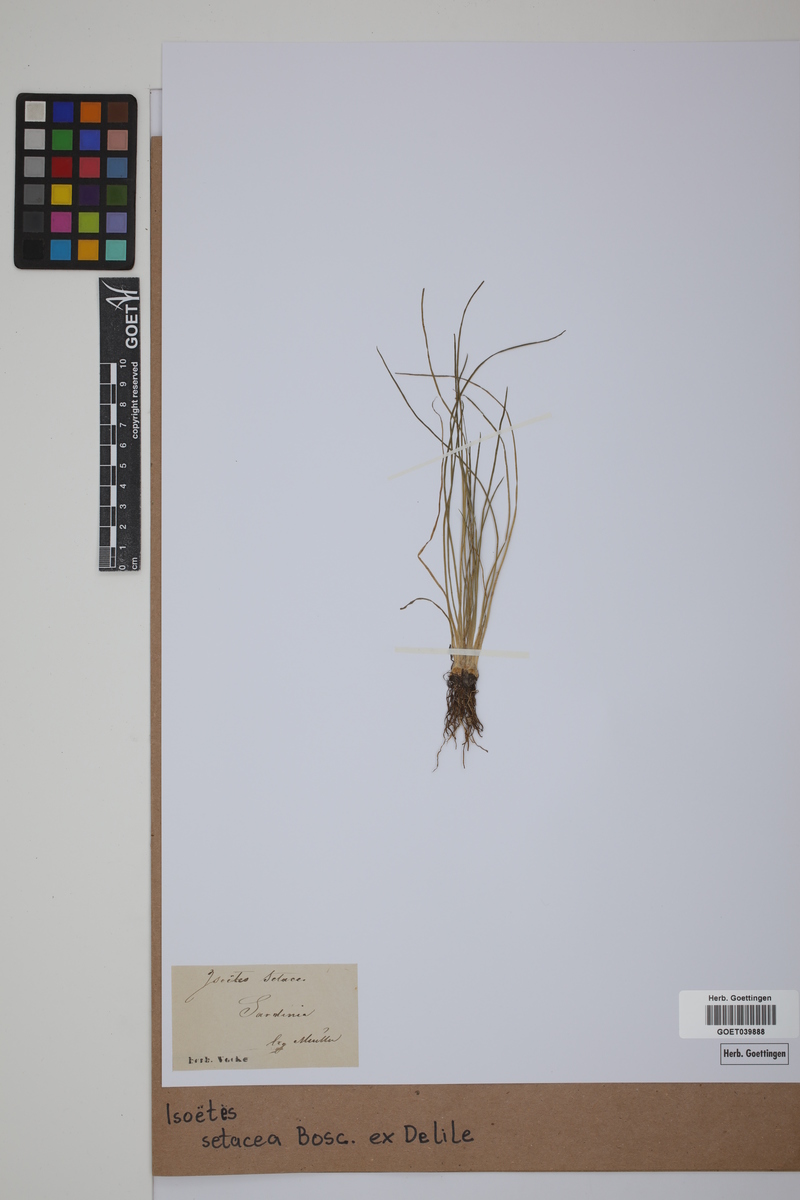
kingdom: Plantae
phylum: Tracheophyta
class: Lycopodiopsida
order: Isoetales
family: Isoetaceae
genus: Isoetes
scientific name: Isoetes longissima
